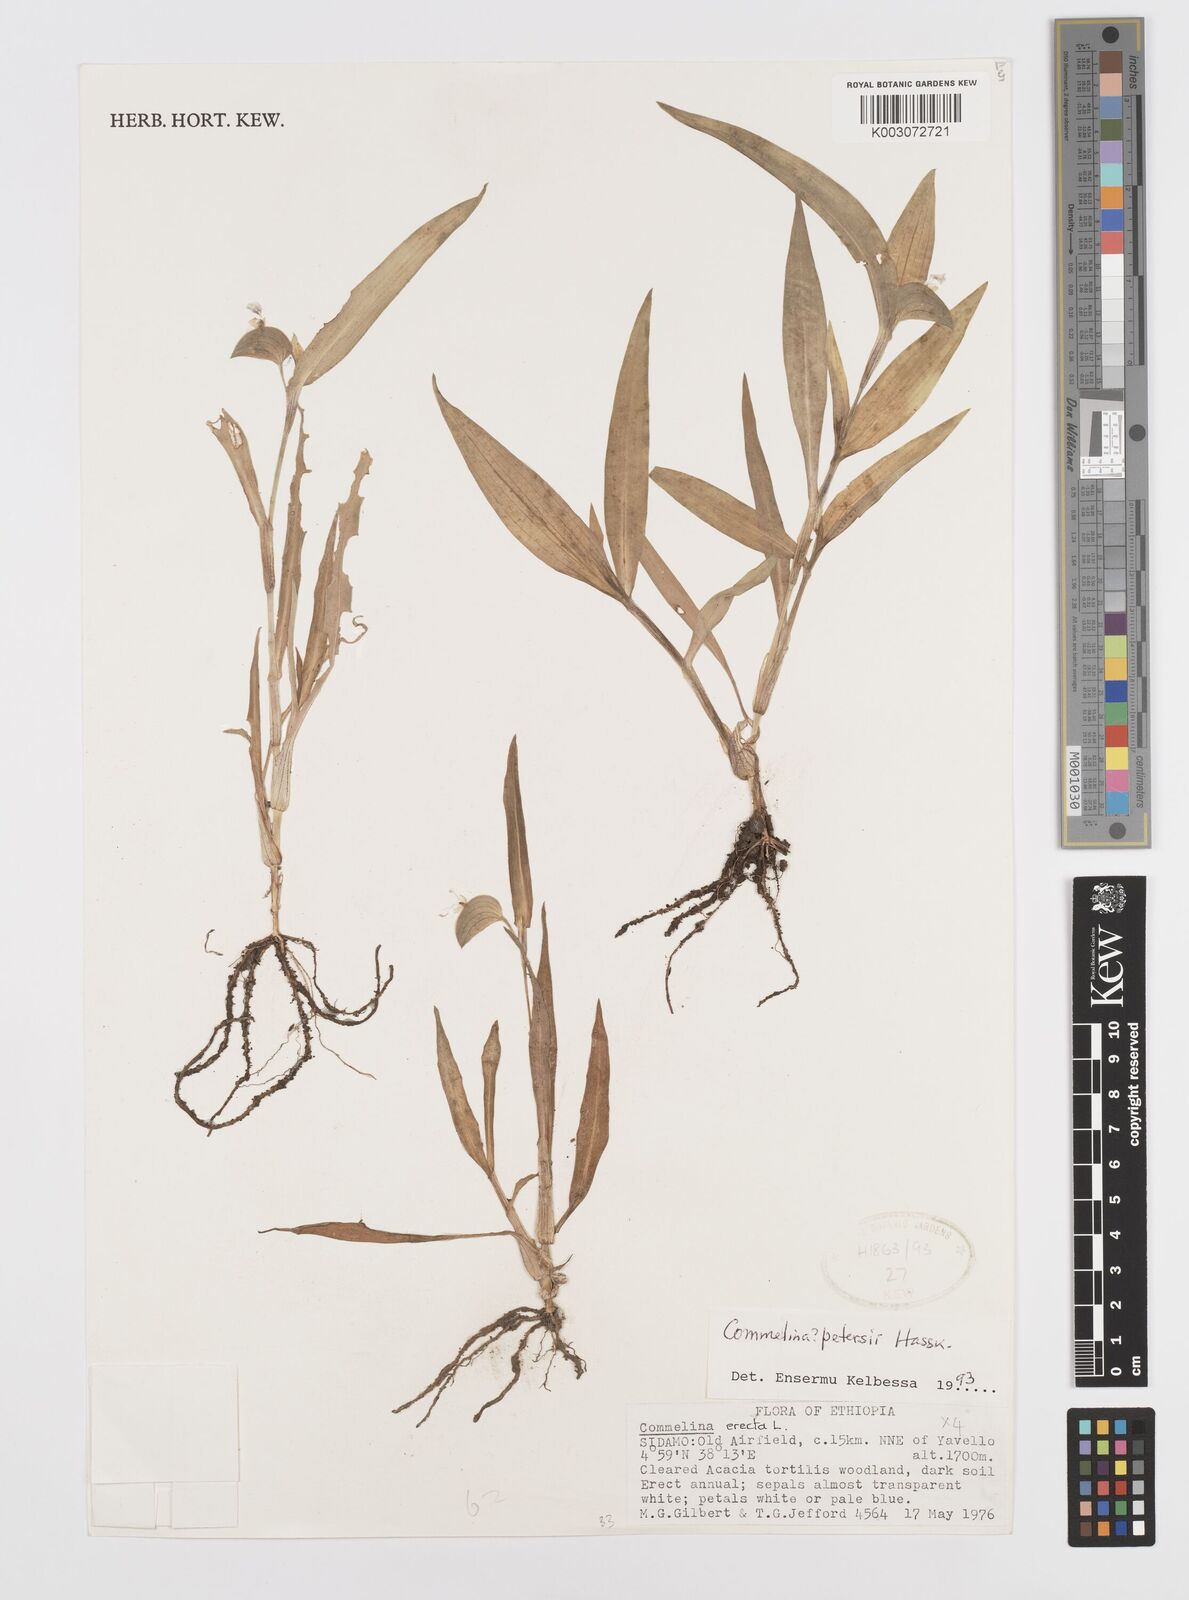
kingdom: Plantae
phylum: Tracheophyta
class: Liliopsida
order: Commelinales
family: Commelinaceae
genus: Commelina
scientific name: Commelina petersii
